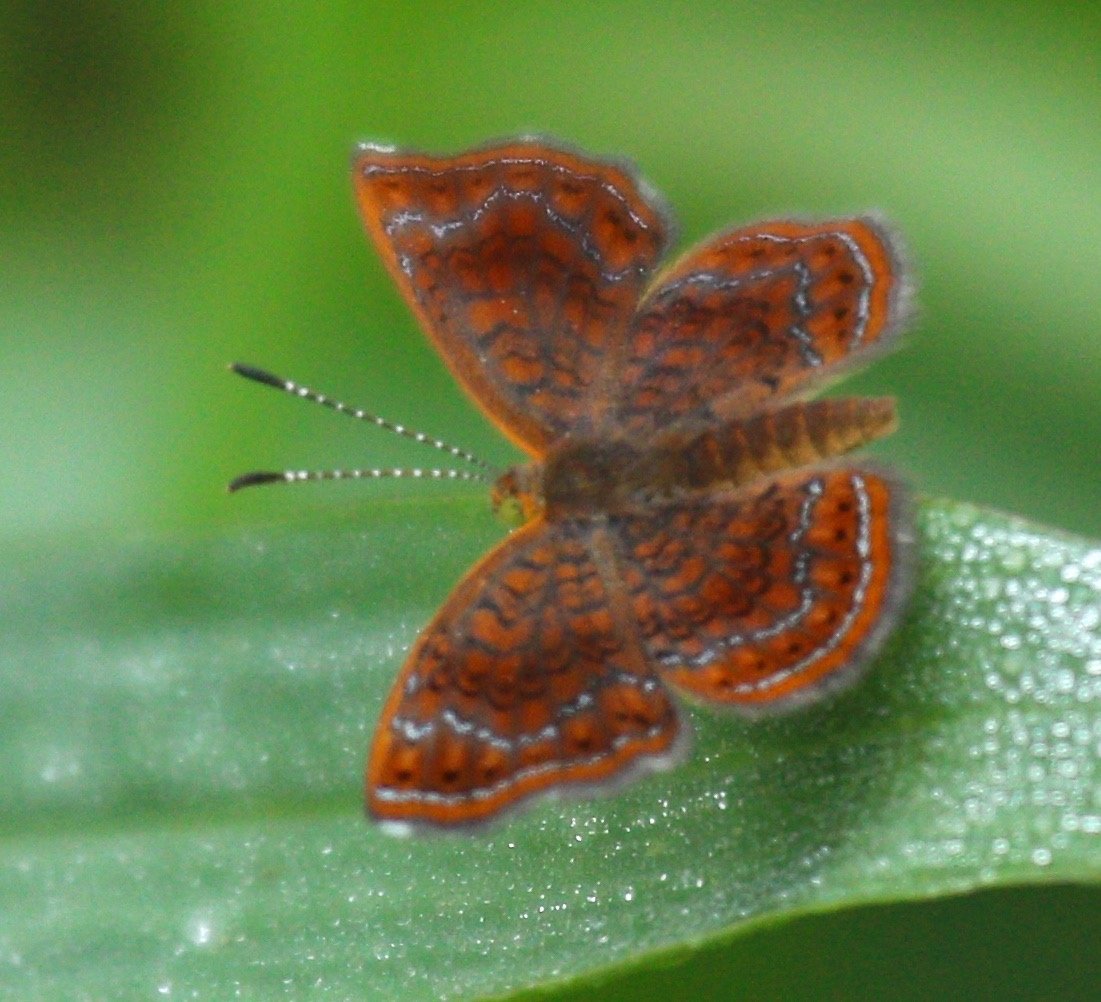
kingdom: Animalia
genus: Calephelis
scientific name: Calephelis perditalis
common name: Rounded Metalmark
